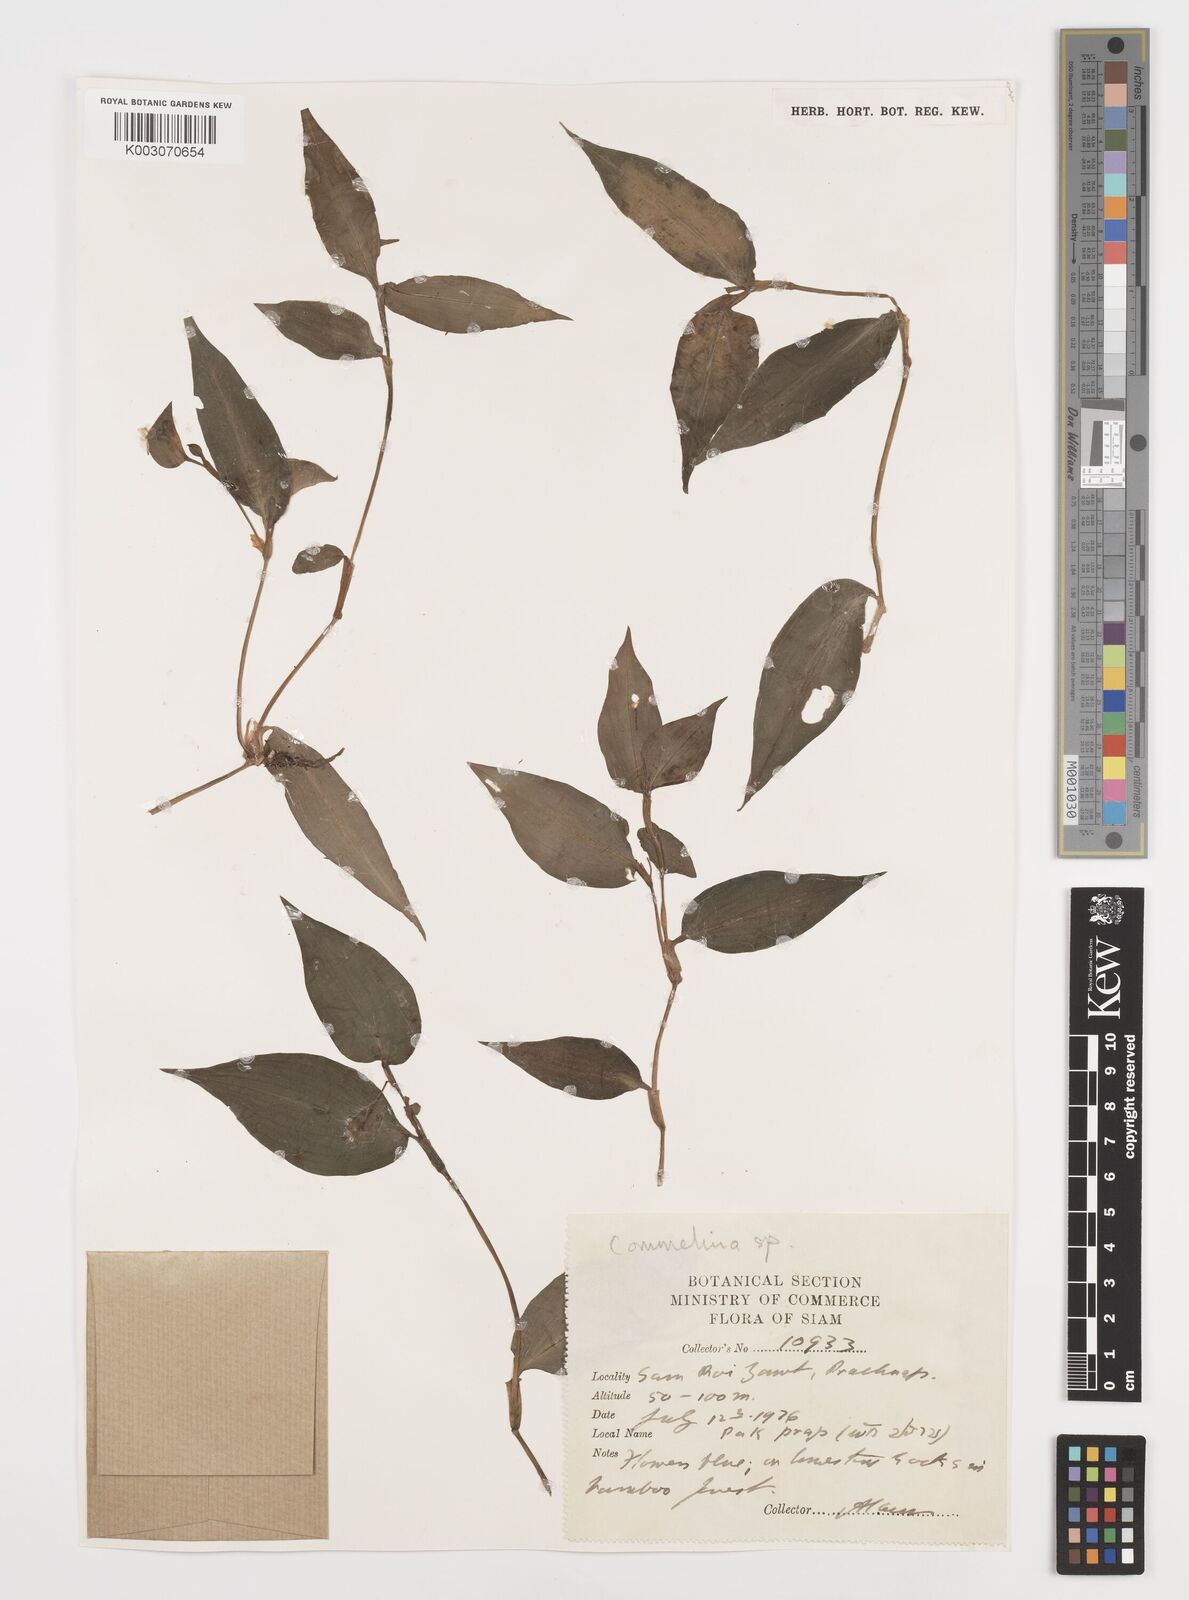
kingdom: Plantae
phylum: Tracheophyta
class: Liliopsida
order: Commelinales
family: Commelinaceae
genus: Commelina
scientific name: Commelina
